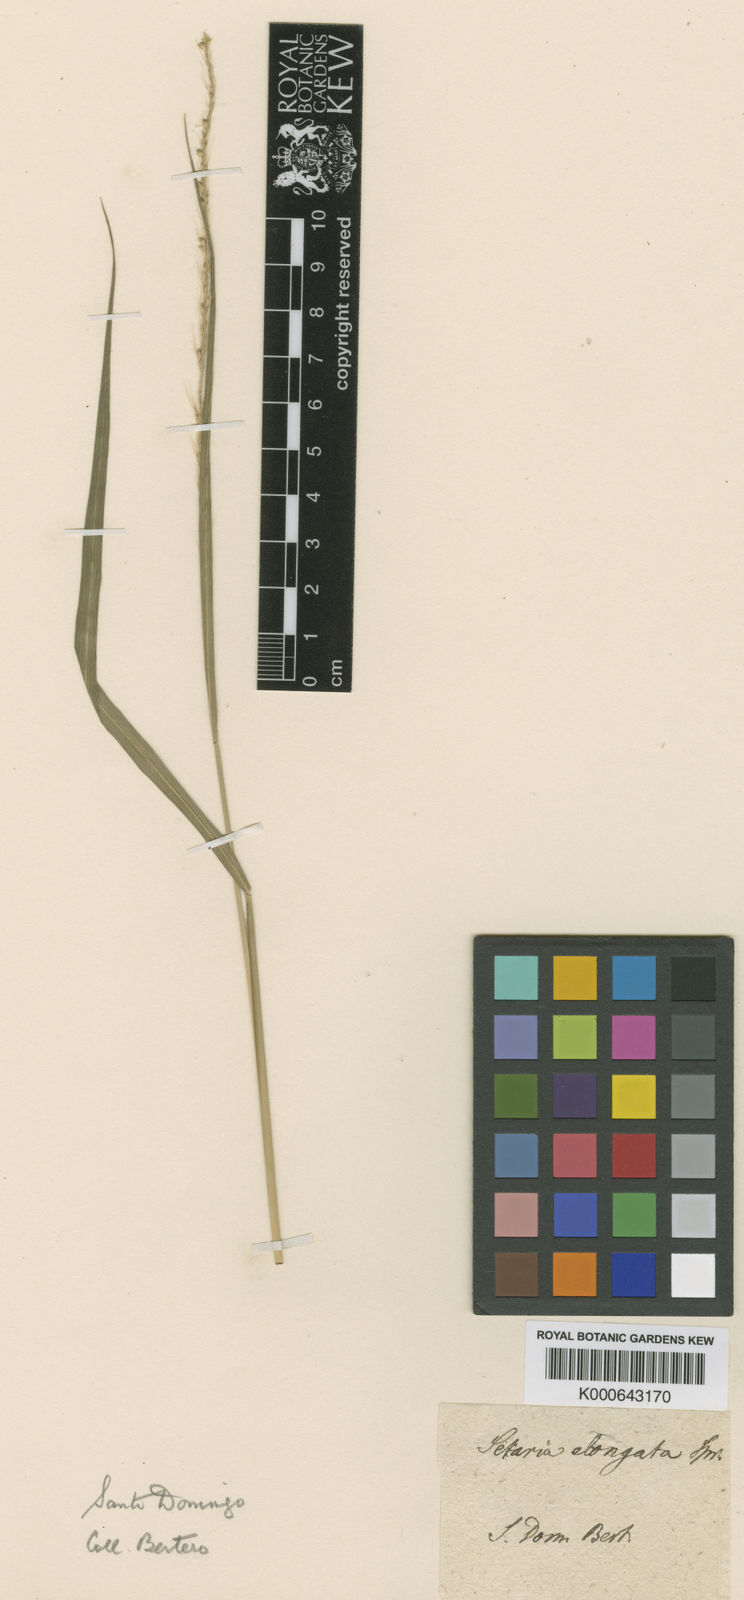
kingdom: Plantae
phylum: Tracheophyta
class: Liliopsida
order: Poales
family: Poaceae
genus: Setaria
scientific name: Setaria setosa
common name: West indies bristle grass
